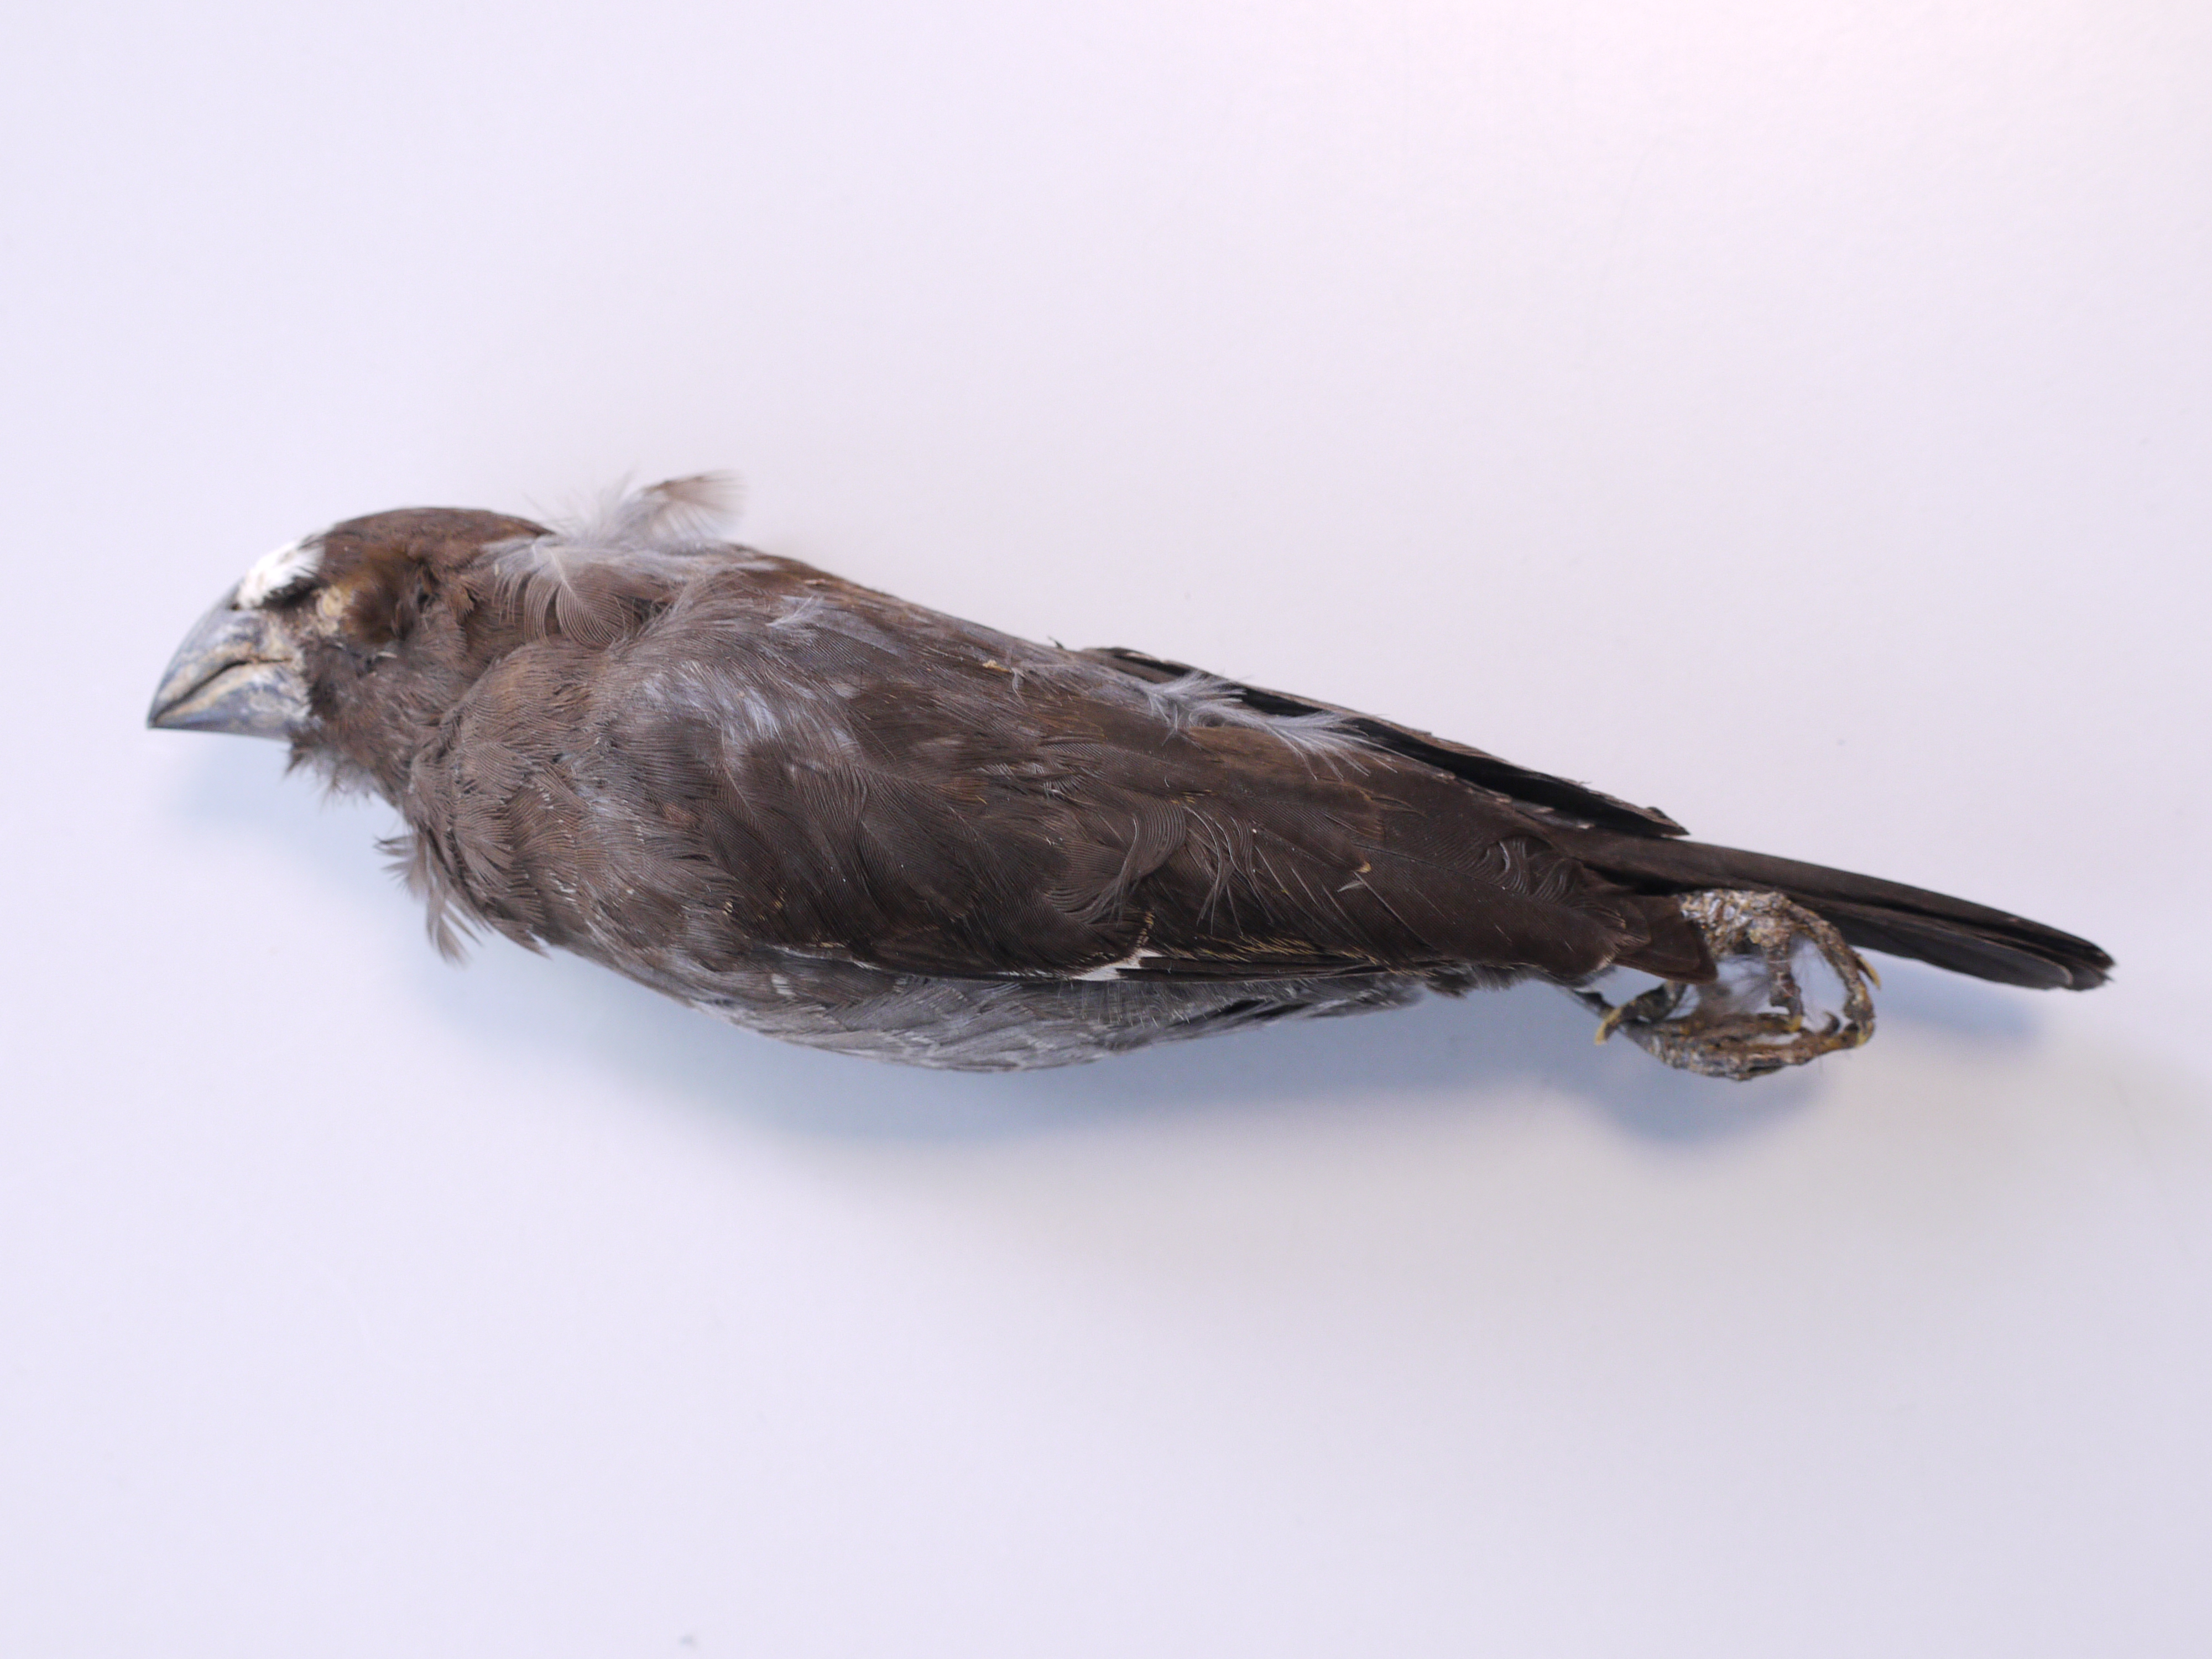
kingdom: Animalia
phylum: Chordata
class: Aves
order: Passeriformes
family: Ploceidae
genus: Amblyospiza
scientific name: Amblyospiza albifrons
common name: Thick-billed weaver
